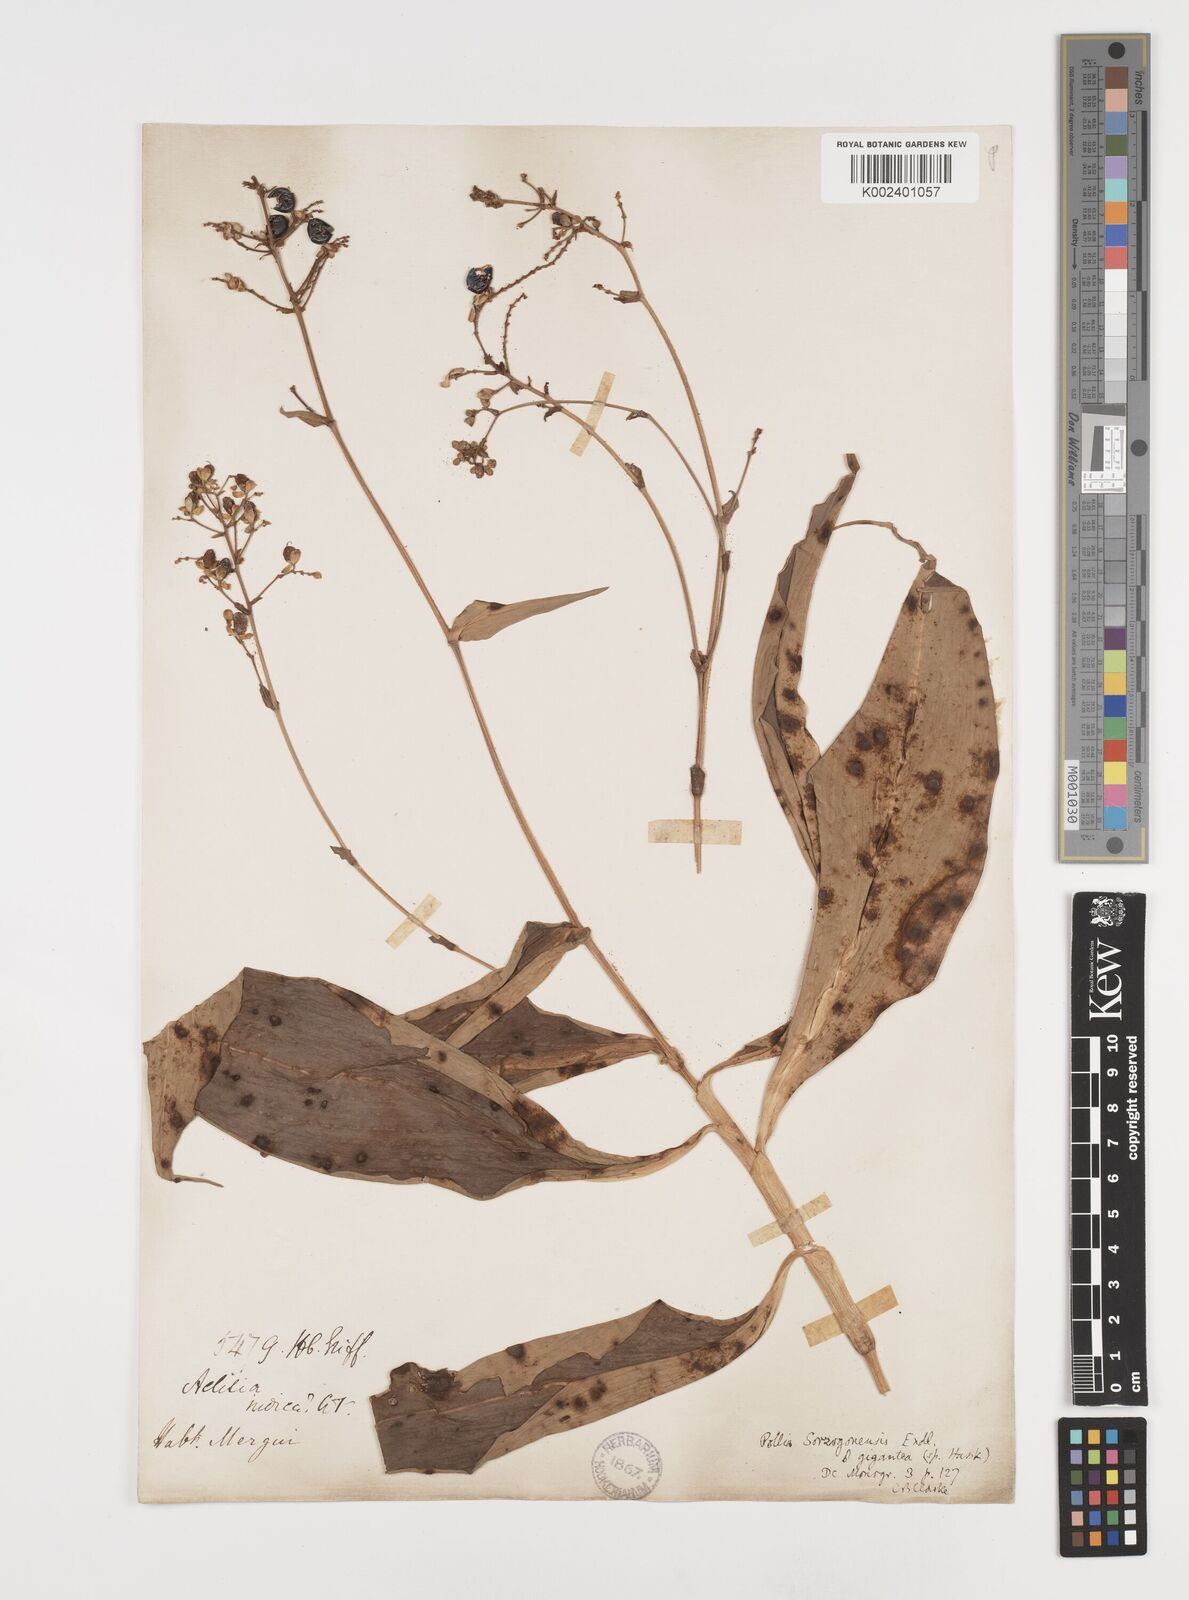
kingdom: Plantae
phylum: Tracheophyta
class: Liliopsida
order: Commelinales
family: Commelinaceae
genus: Pollia
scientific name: Pollia secundiflora
